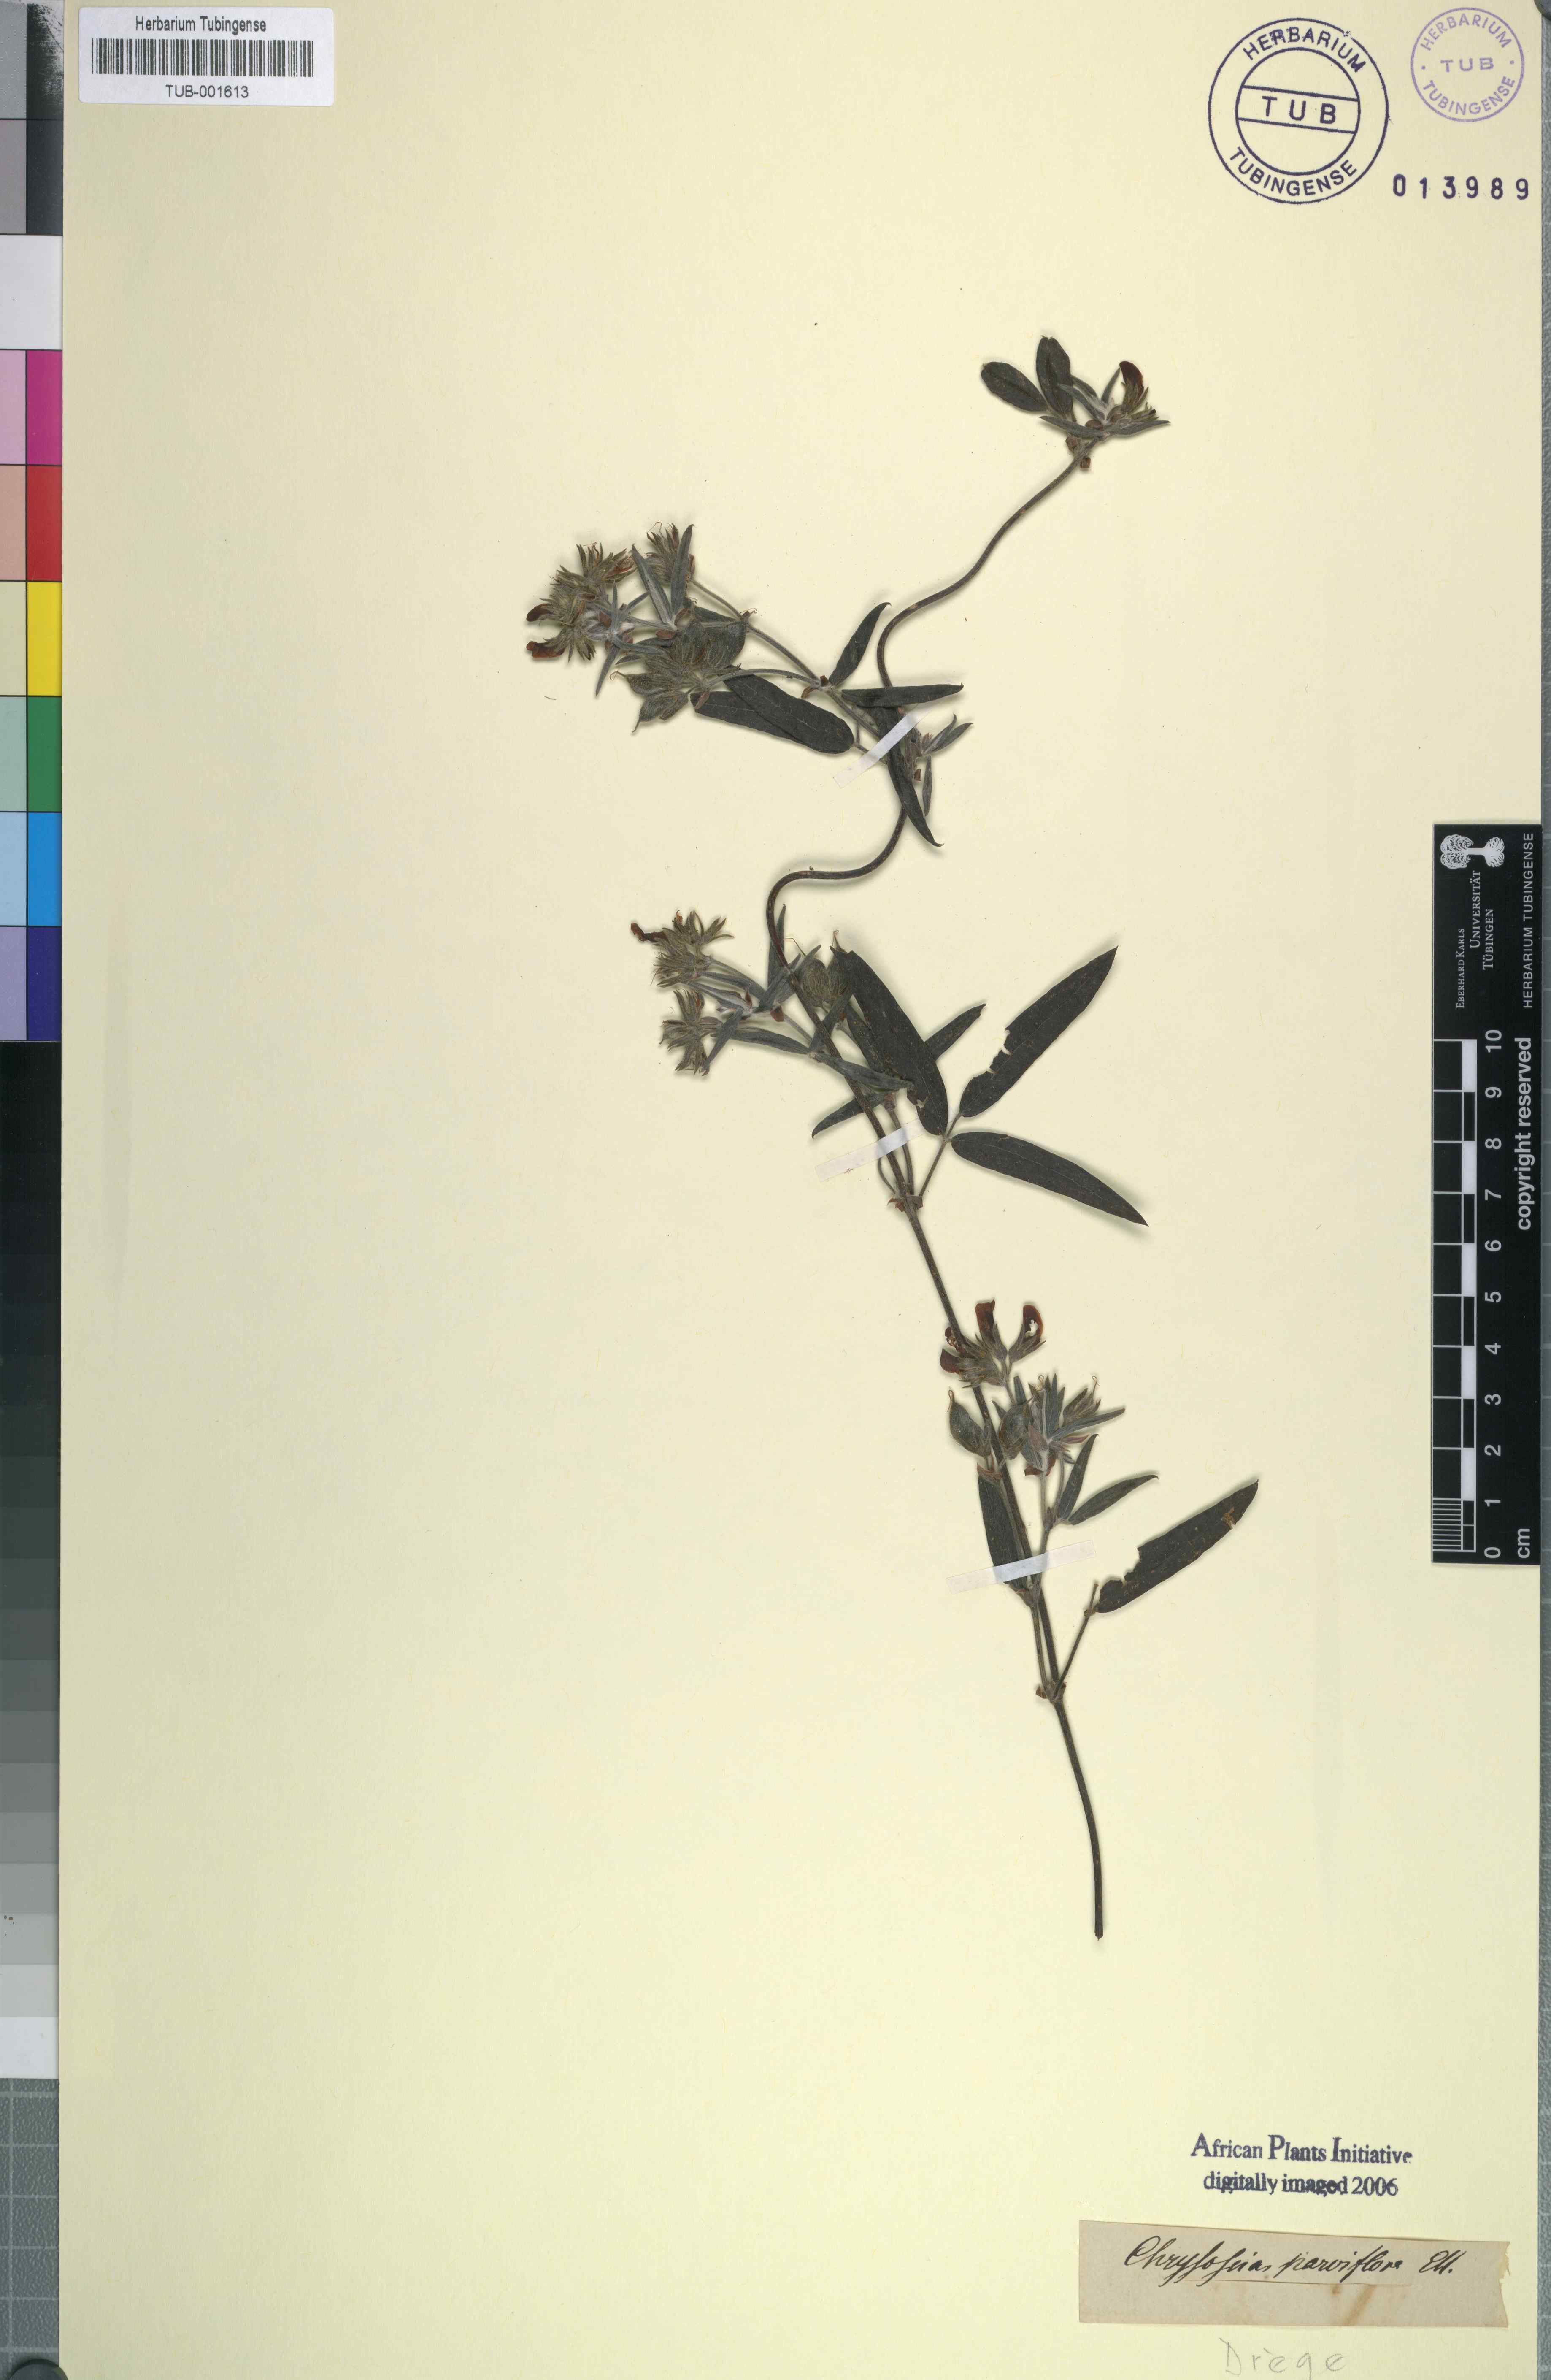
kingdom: Plantae
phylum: Tracheophyta
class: Magnoliopsida
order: Fabales
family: Fabaceae
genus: Rhynchosia
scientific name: Rhynchosia microscias
